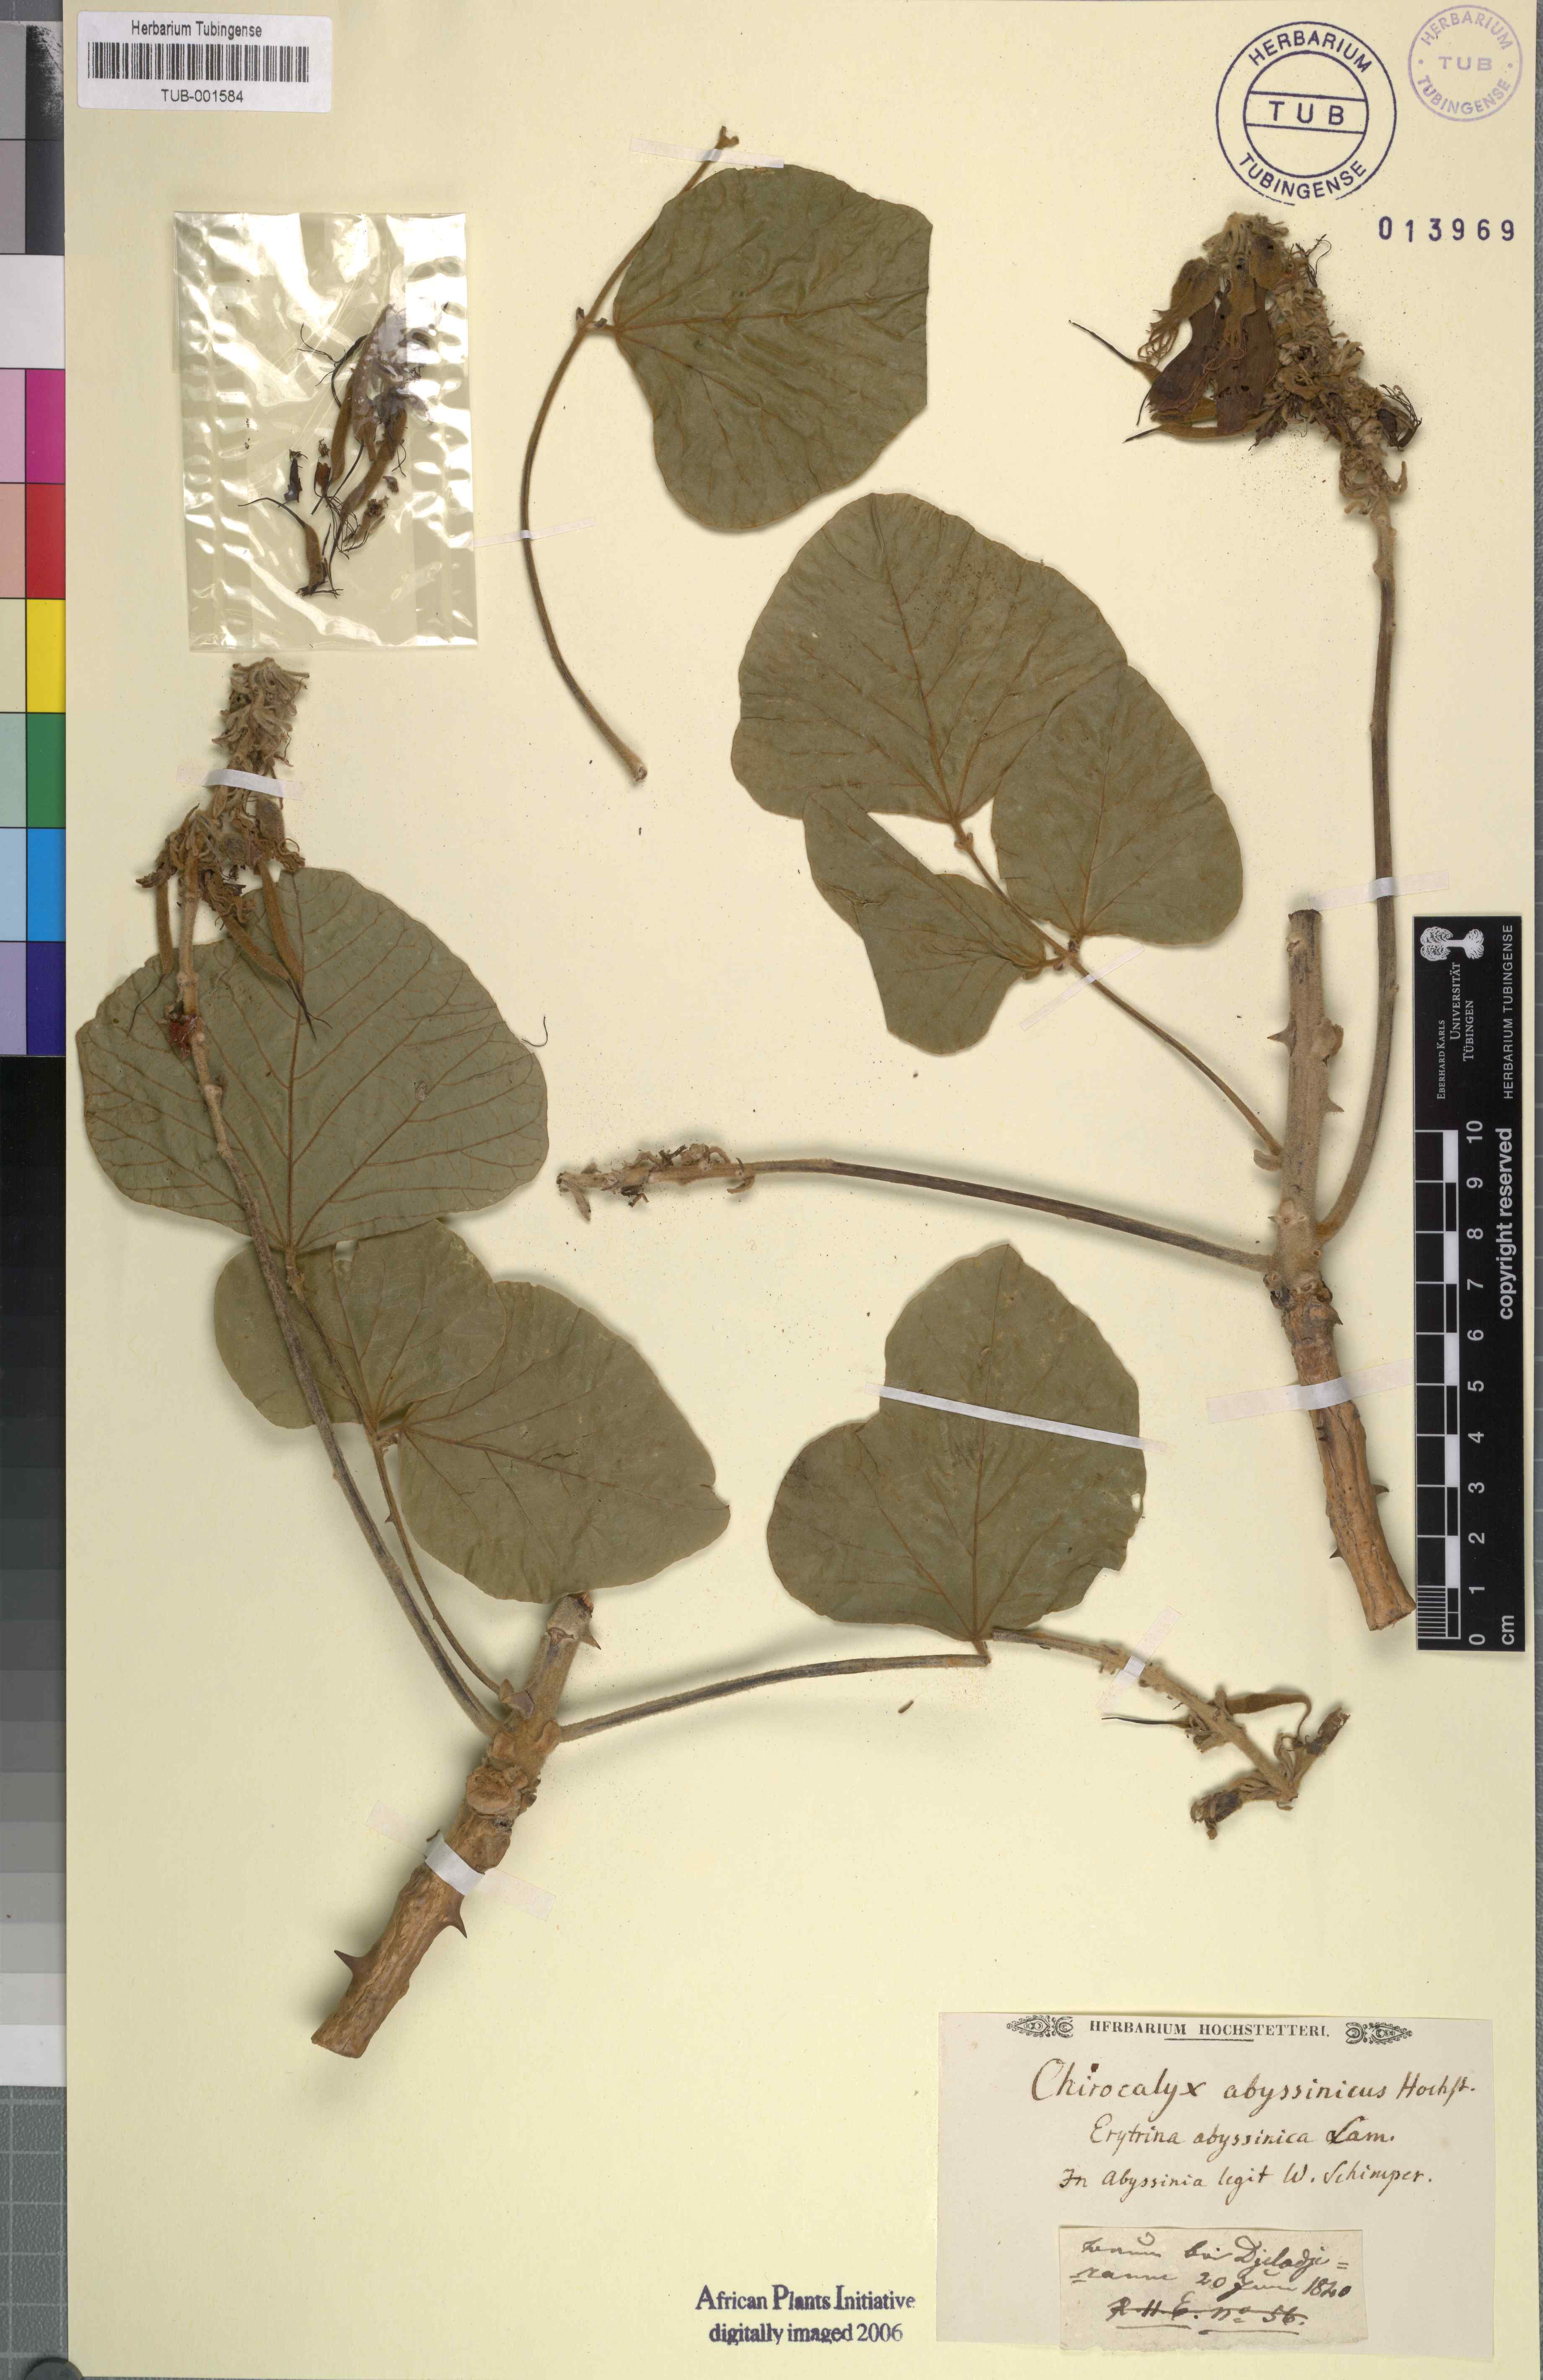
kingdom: Plantae
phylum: Tracheophyta
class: Magnoliopsida
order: Fabales
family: Fabaceae
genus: Erythrina
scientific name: Erythrina abyssinica
